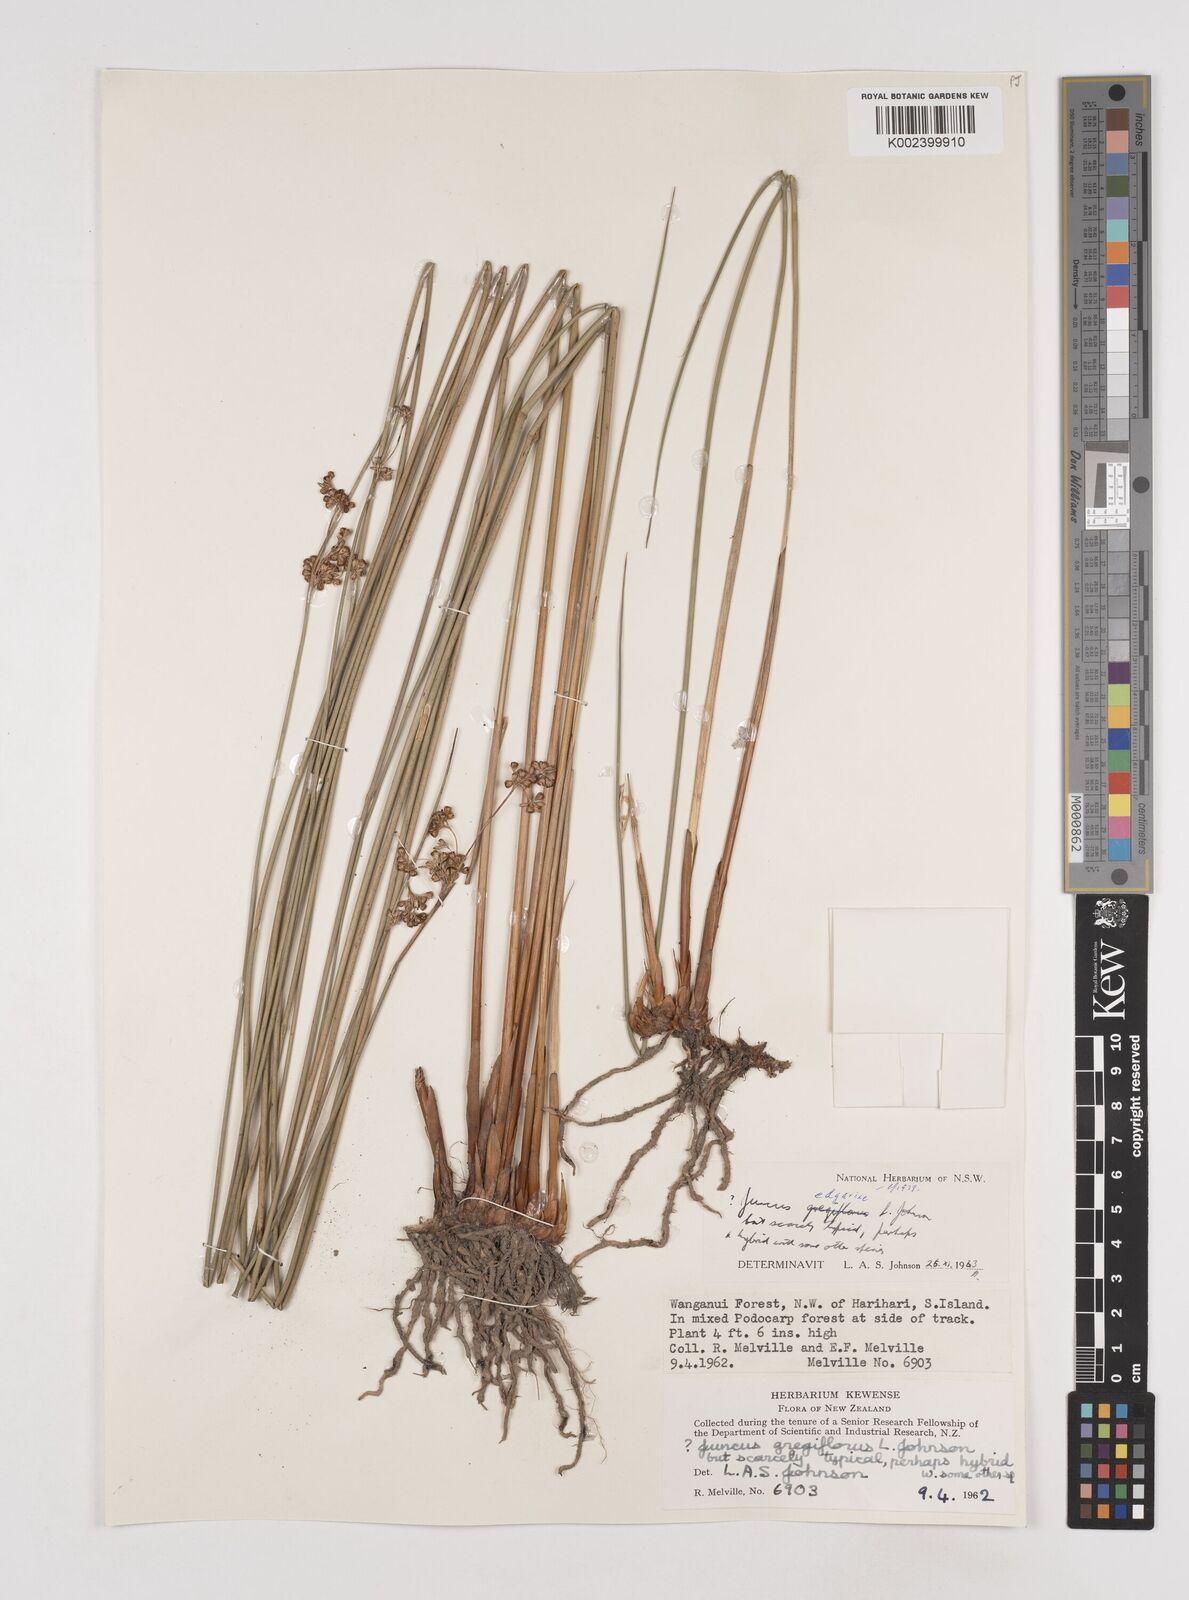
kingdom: Plantae
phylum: Tracheophyta
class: Liliopsida
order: Poales
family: Juncaceae
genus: Juncus
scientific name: Juncus hybridus
